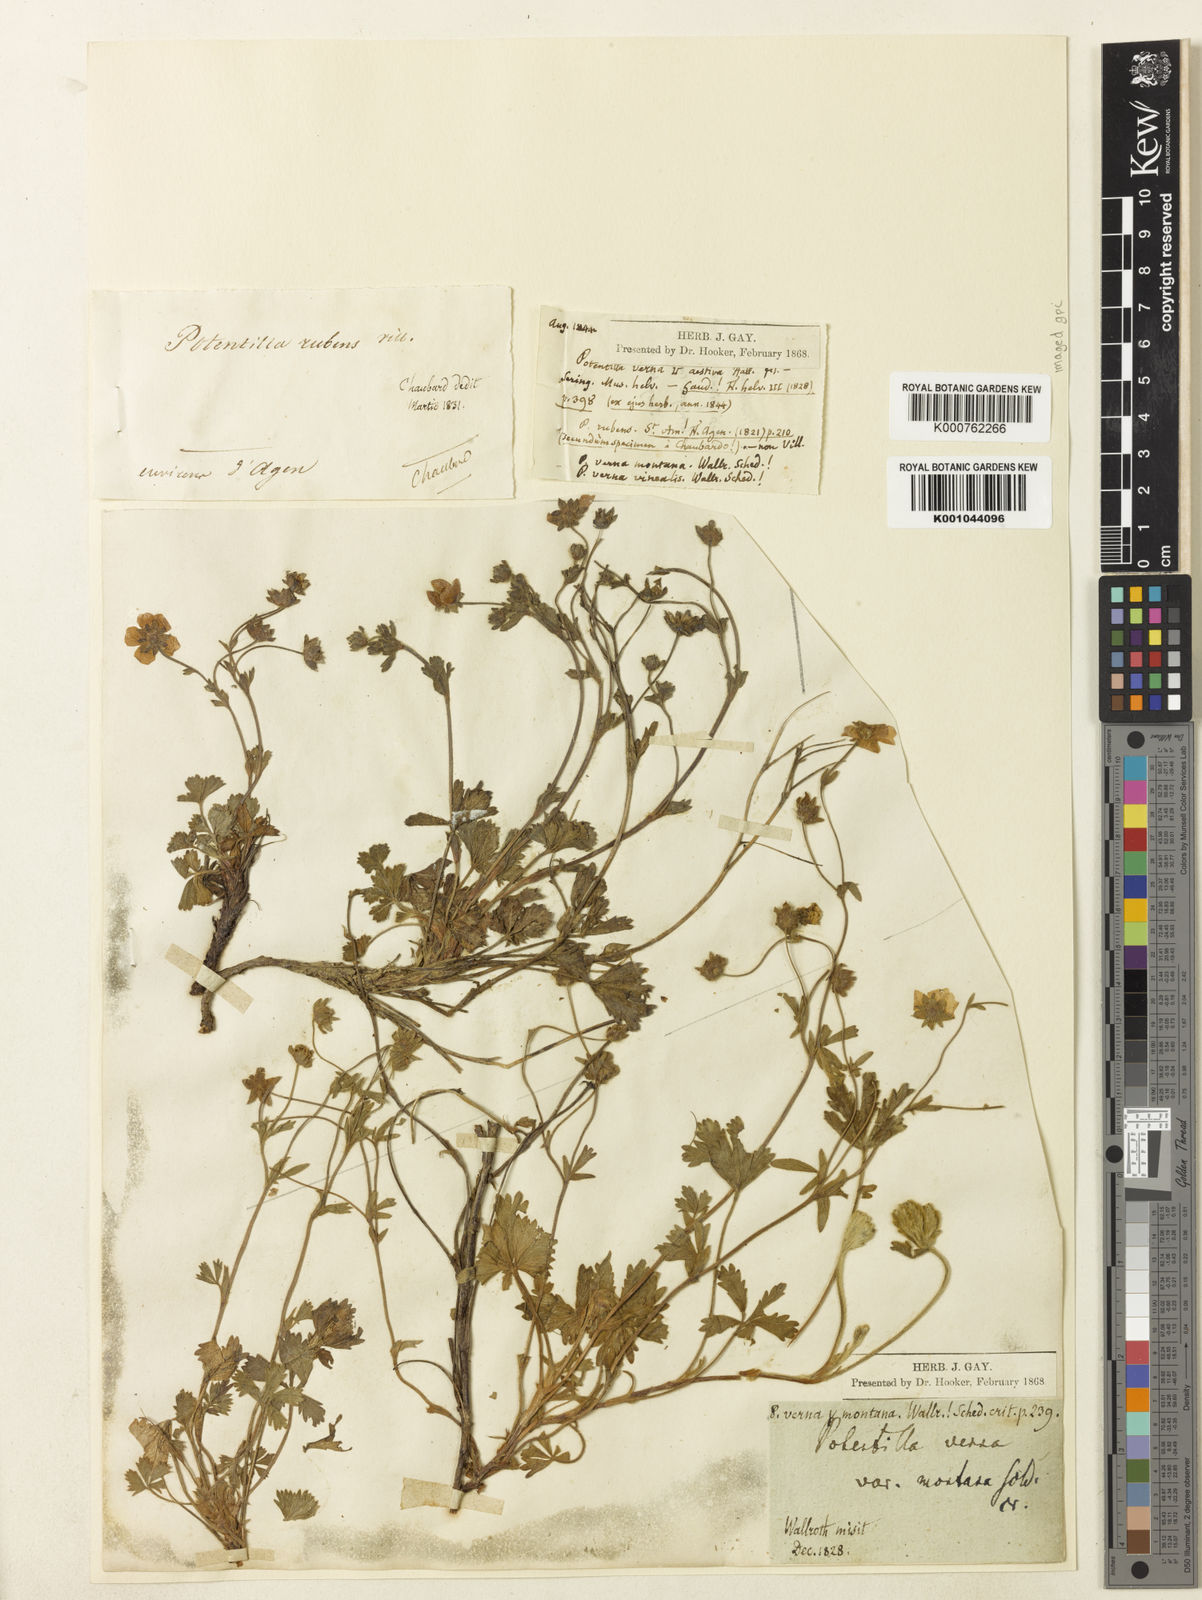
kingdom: Plantae
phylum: Tracheophyta
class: Magnoliopsida
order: Rosales
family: Rosaceae
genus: Potentilla
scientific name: Potentilla verna
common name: Spring cinquefoil
